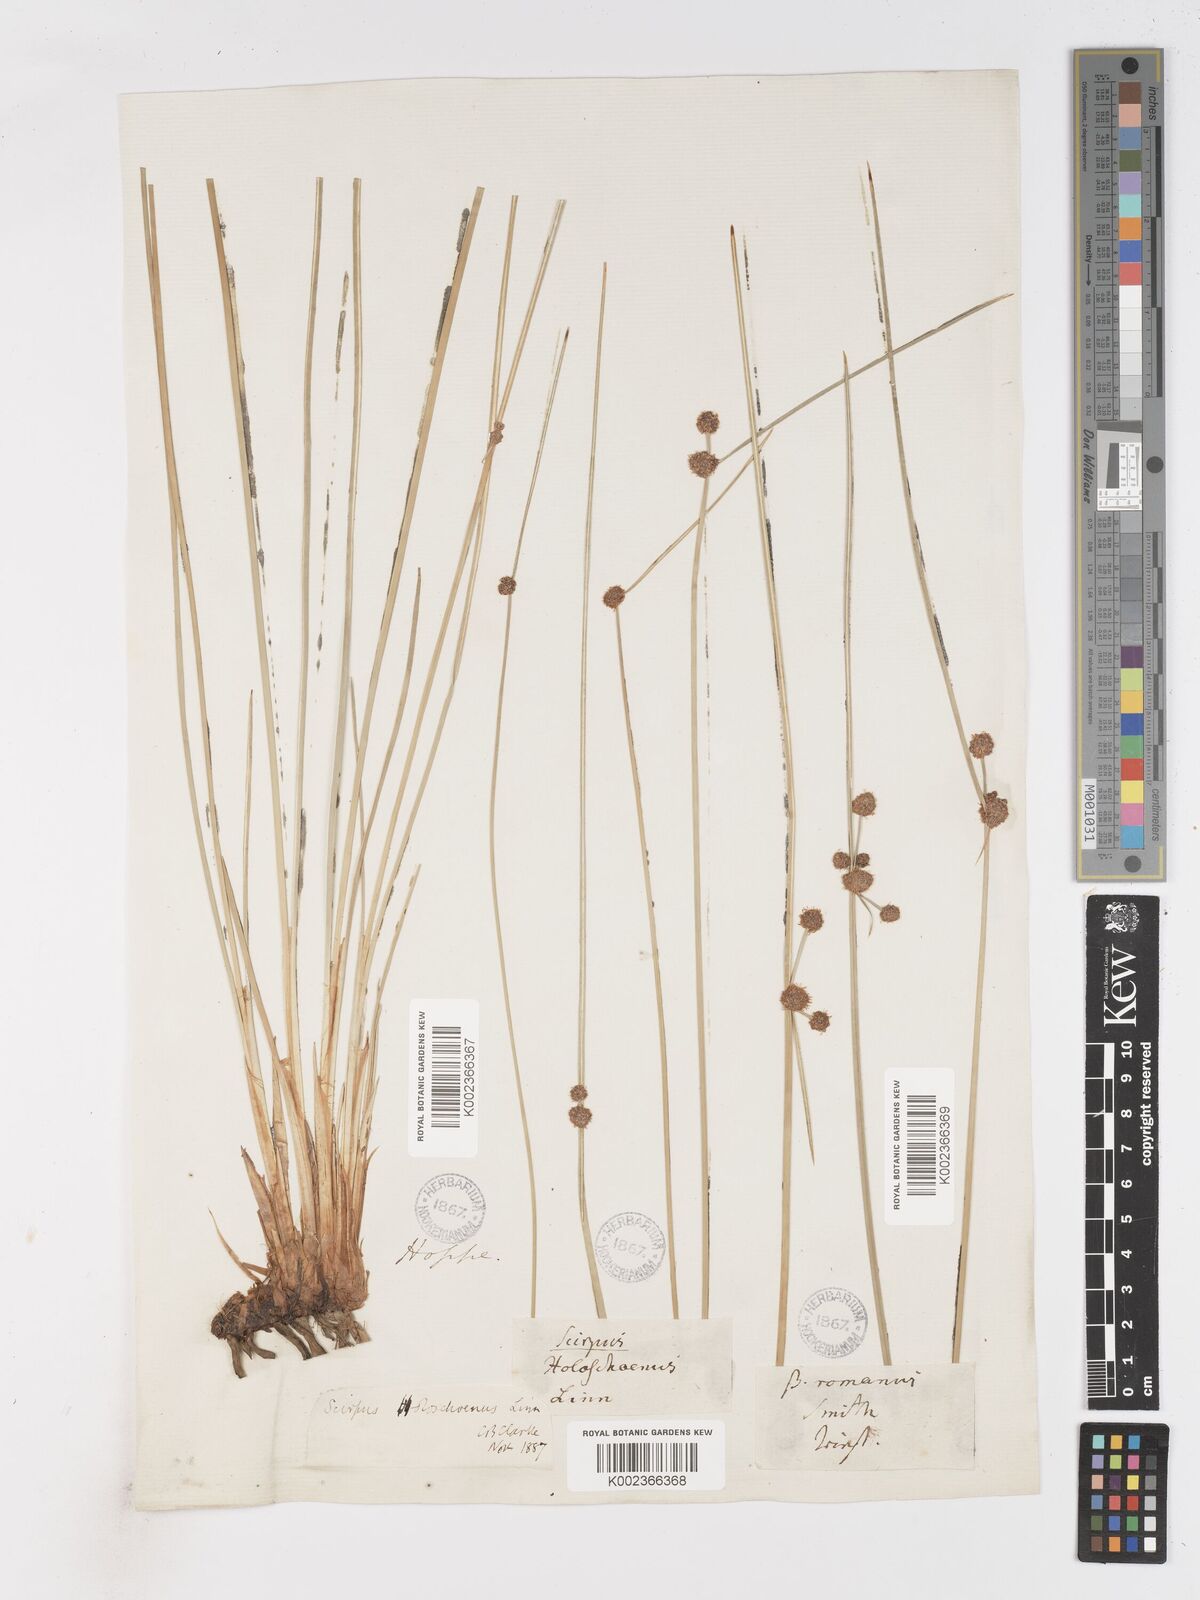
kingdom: Plantae
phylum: Tracheophyta
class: Liliopsida
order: Poales
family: Cyperaceae
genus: Scirpoides
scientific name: Scirpoides holoschoenus
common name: Round-headed club-rush
